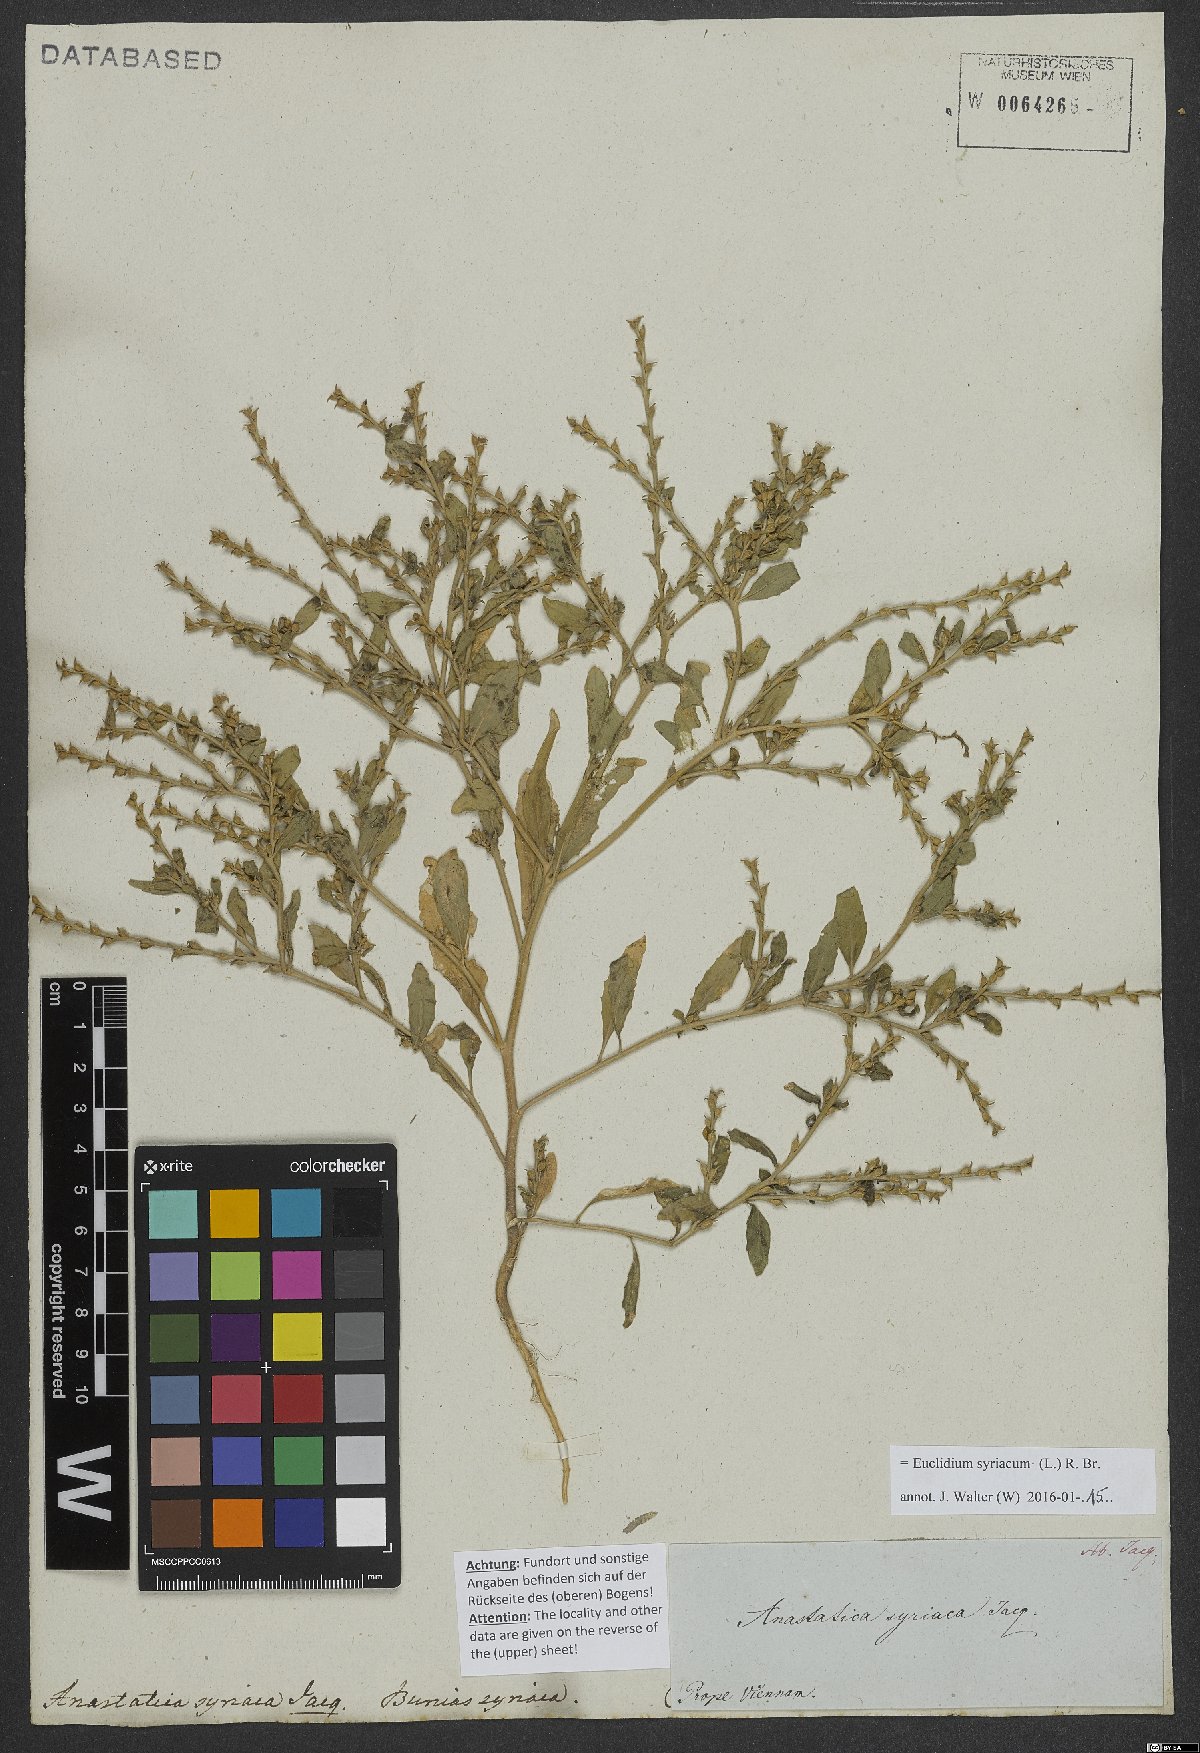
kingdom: Plantae
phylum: Tracheophyta
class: Magnoliopsida
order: Brassicales
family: Brassicaceae
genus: Euclidium
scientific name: Euclidium syriacum
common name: Syrian mustard
